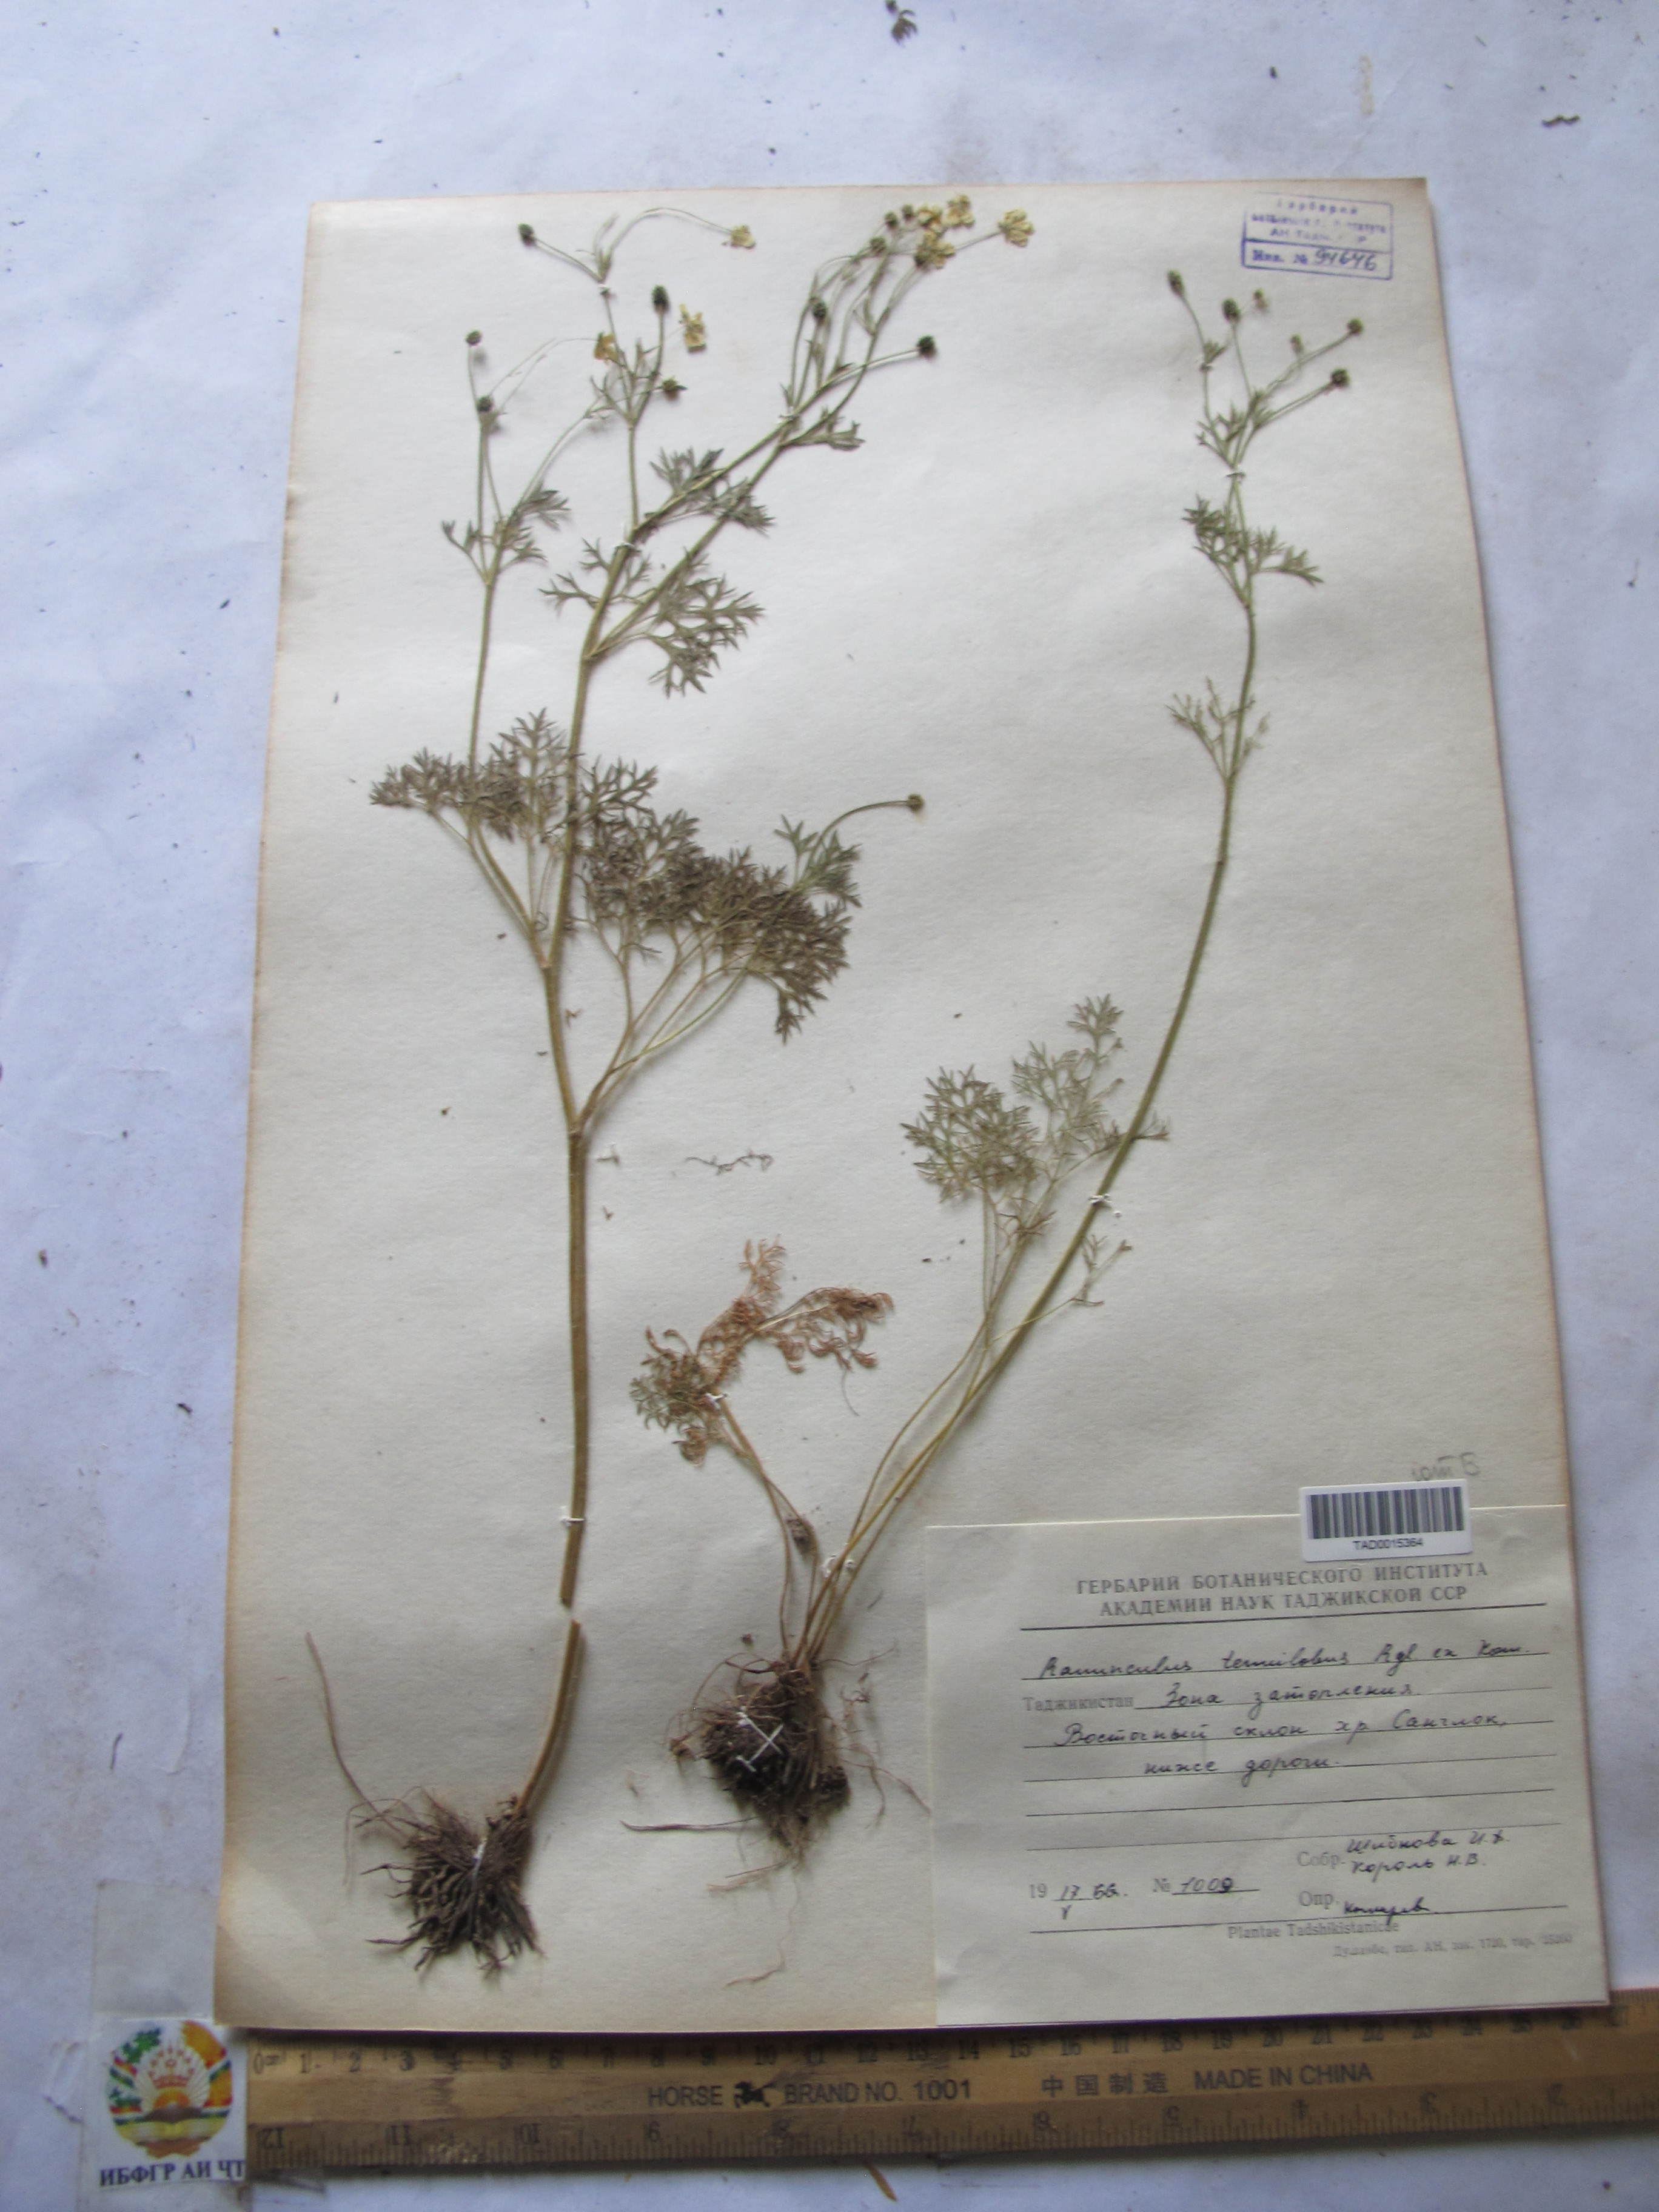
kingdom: Plantae
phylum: Tracheophyta
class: Magnoliopsida
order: Ranunculales
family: Ranunculaceae
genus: Ranunculus
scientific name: Ranunculus tenuilobus
